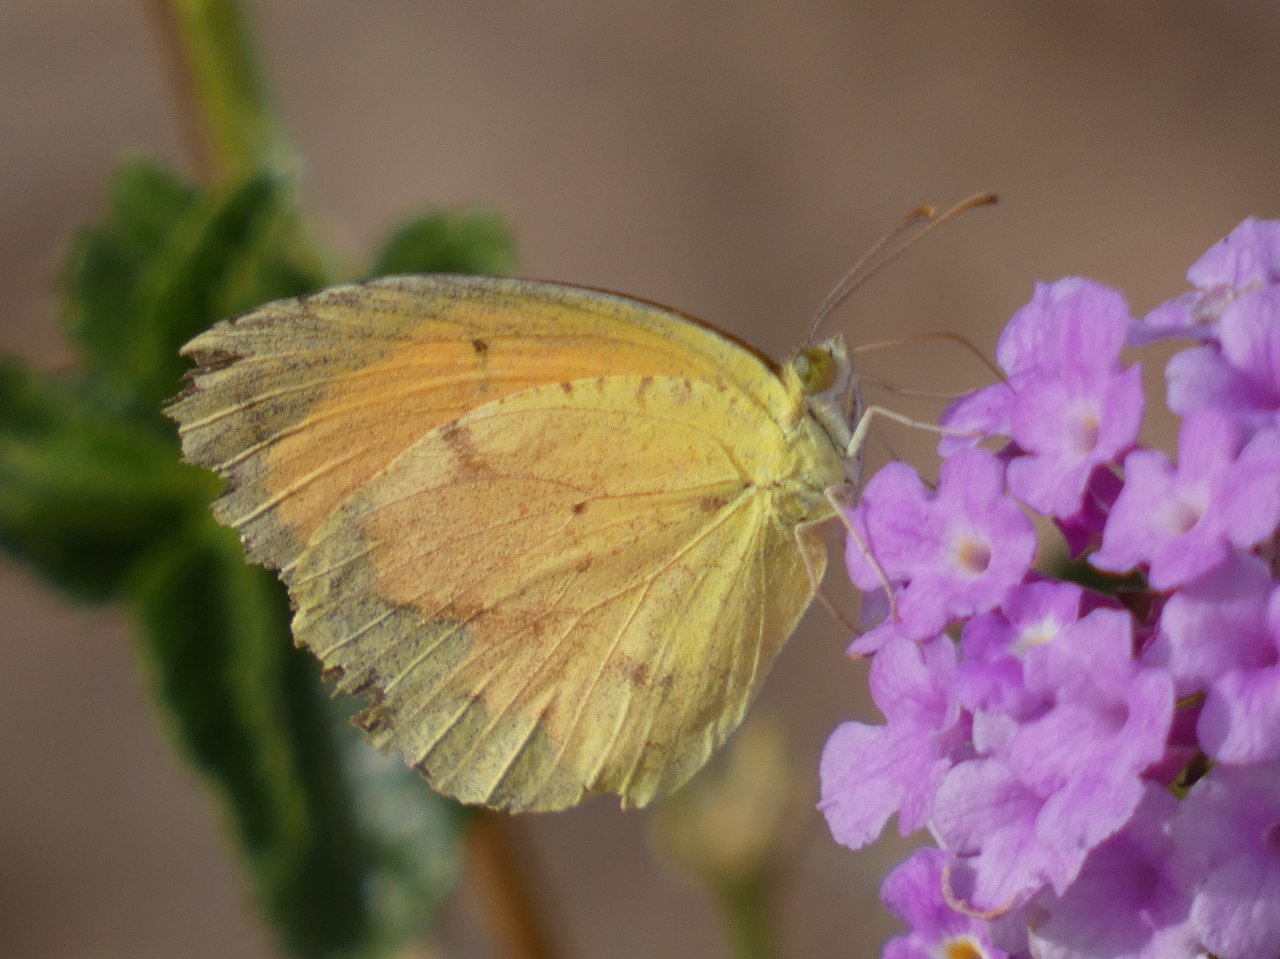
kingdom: Animalia
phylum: Arthropoda
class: Insecta
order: Lepidoptera
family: Pieridae
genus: Abaeis
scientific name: Abaeis nicippe
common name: Sleepy Orange
